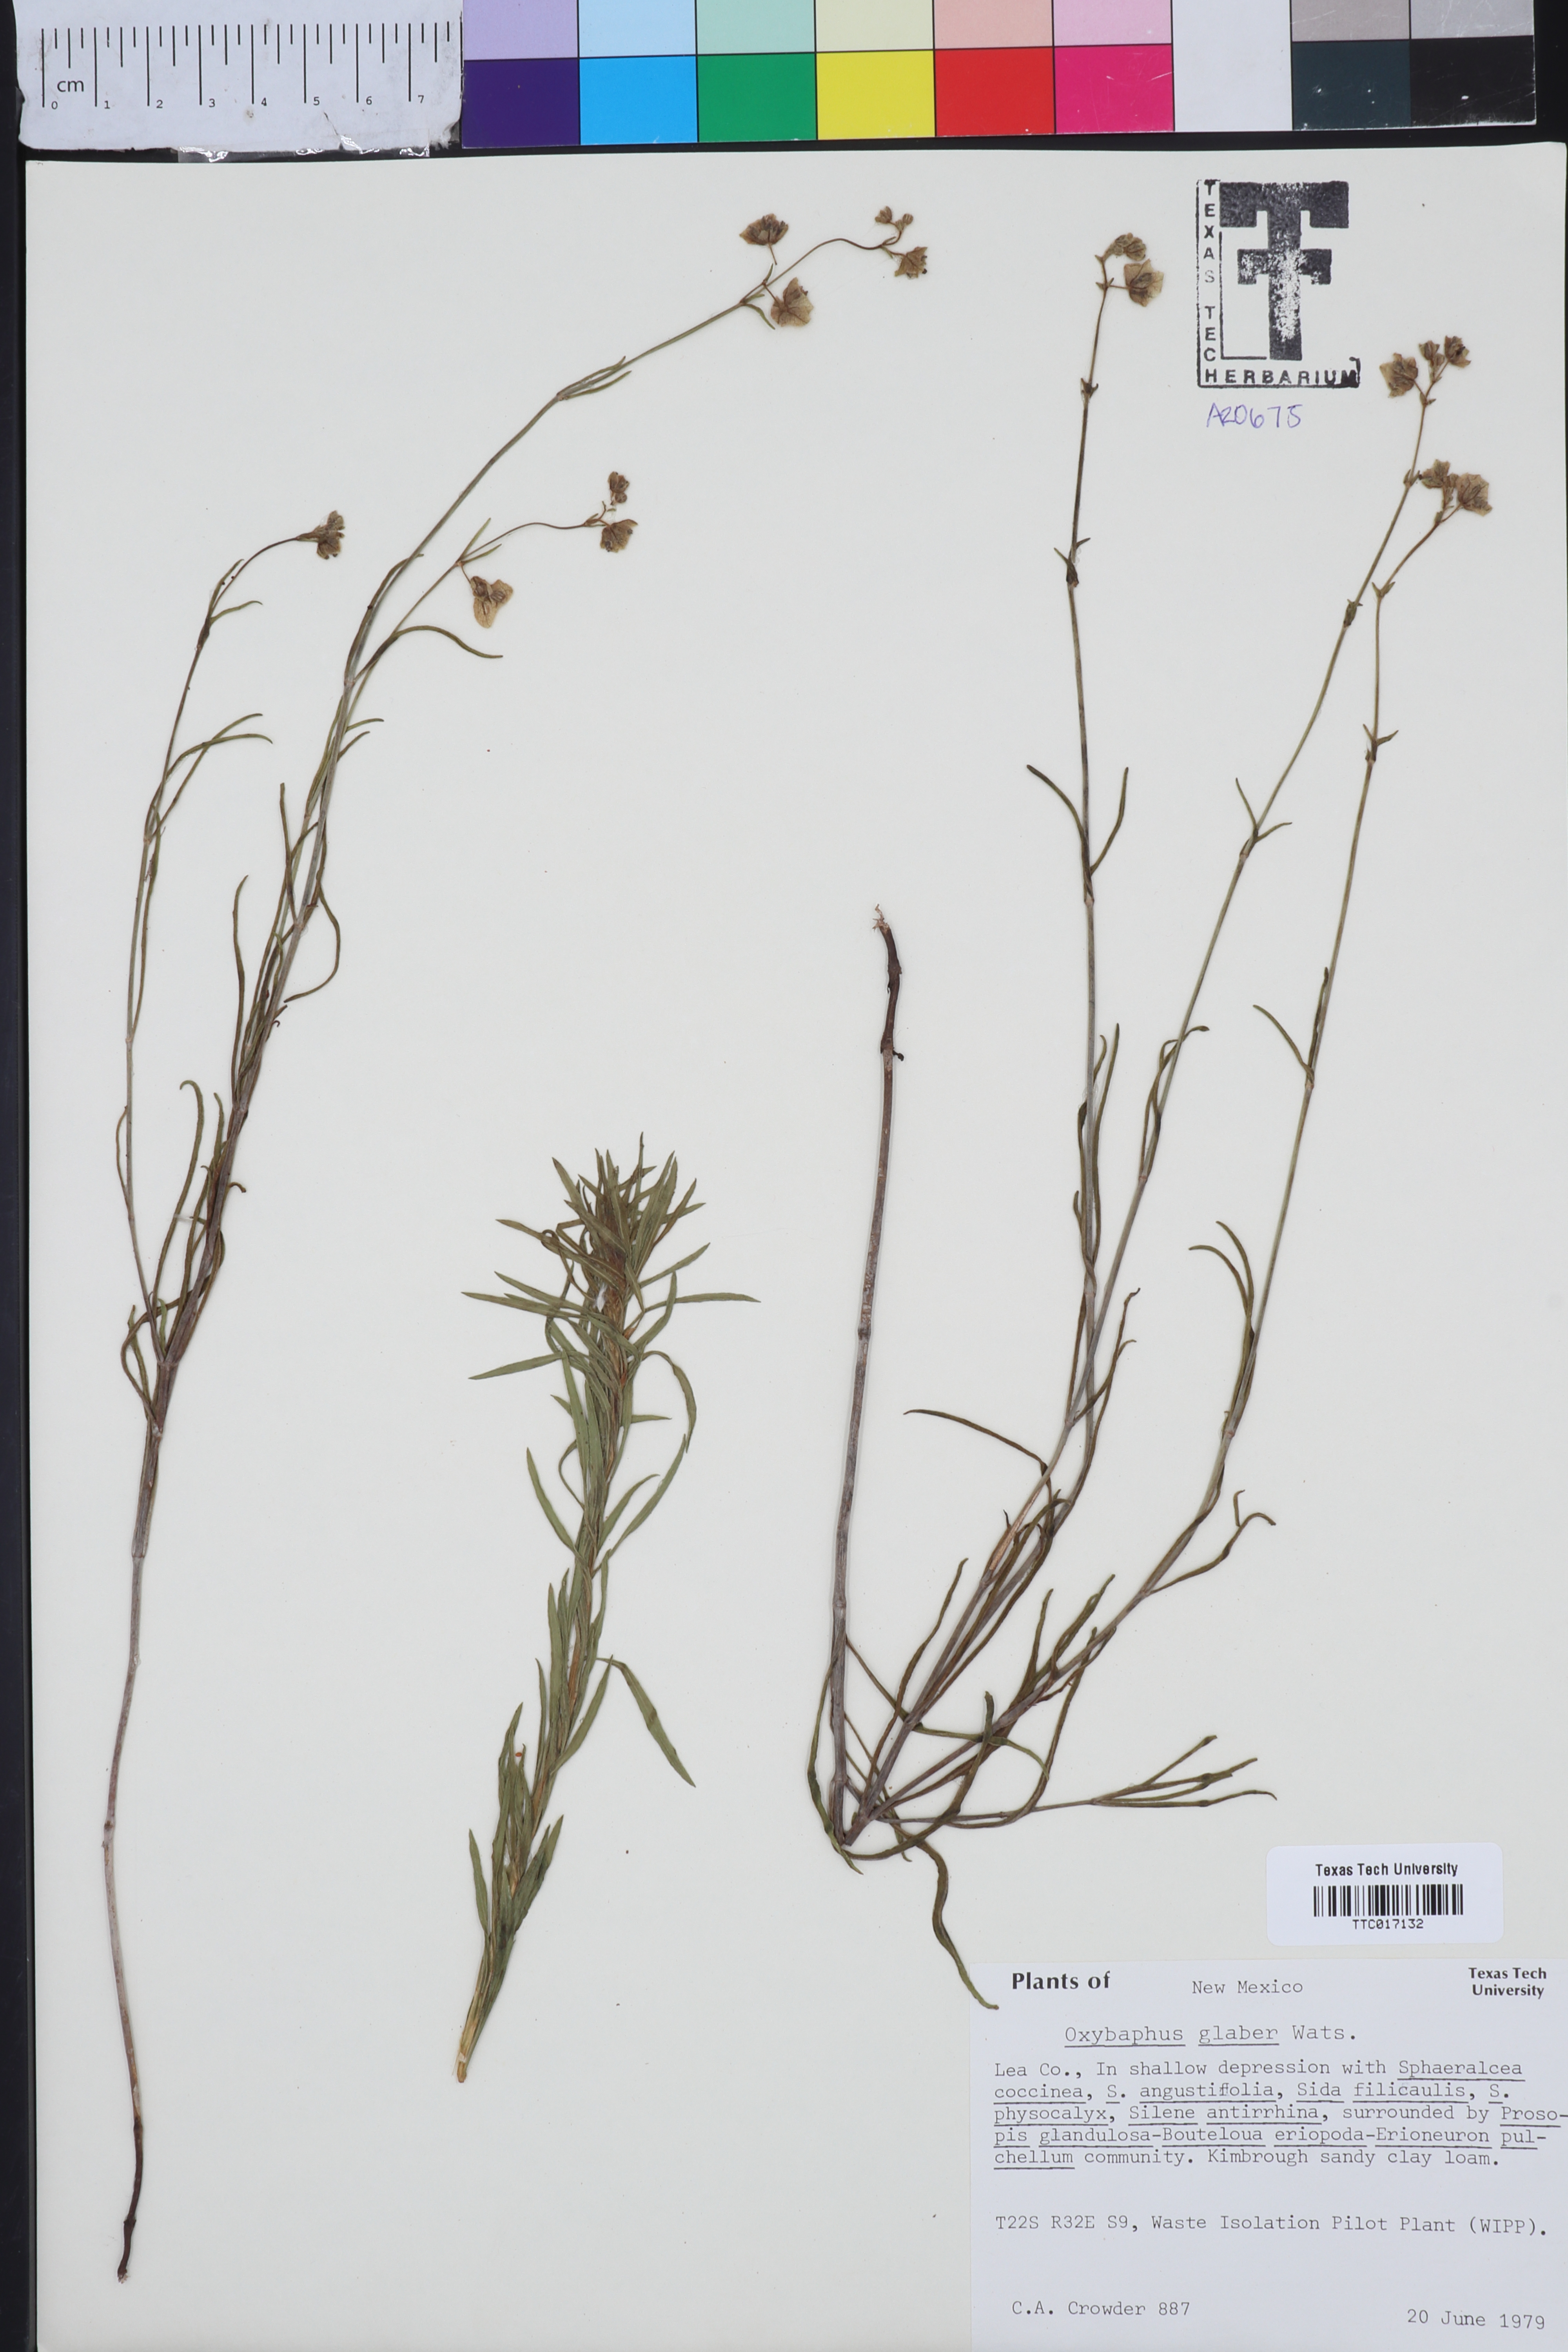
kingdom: Plantae
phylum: Tracheophyta
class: Magnoliopsida
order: Caryophyllales
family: Nyctaginaceae
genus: Mirabilis
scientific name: Mirabilis glabra
